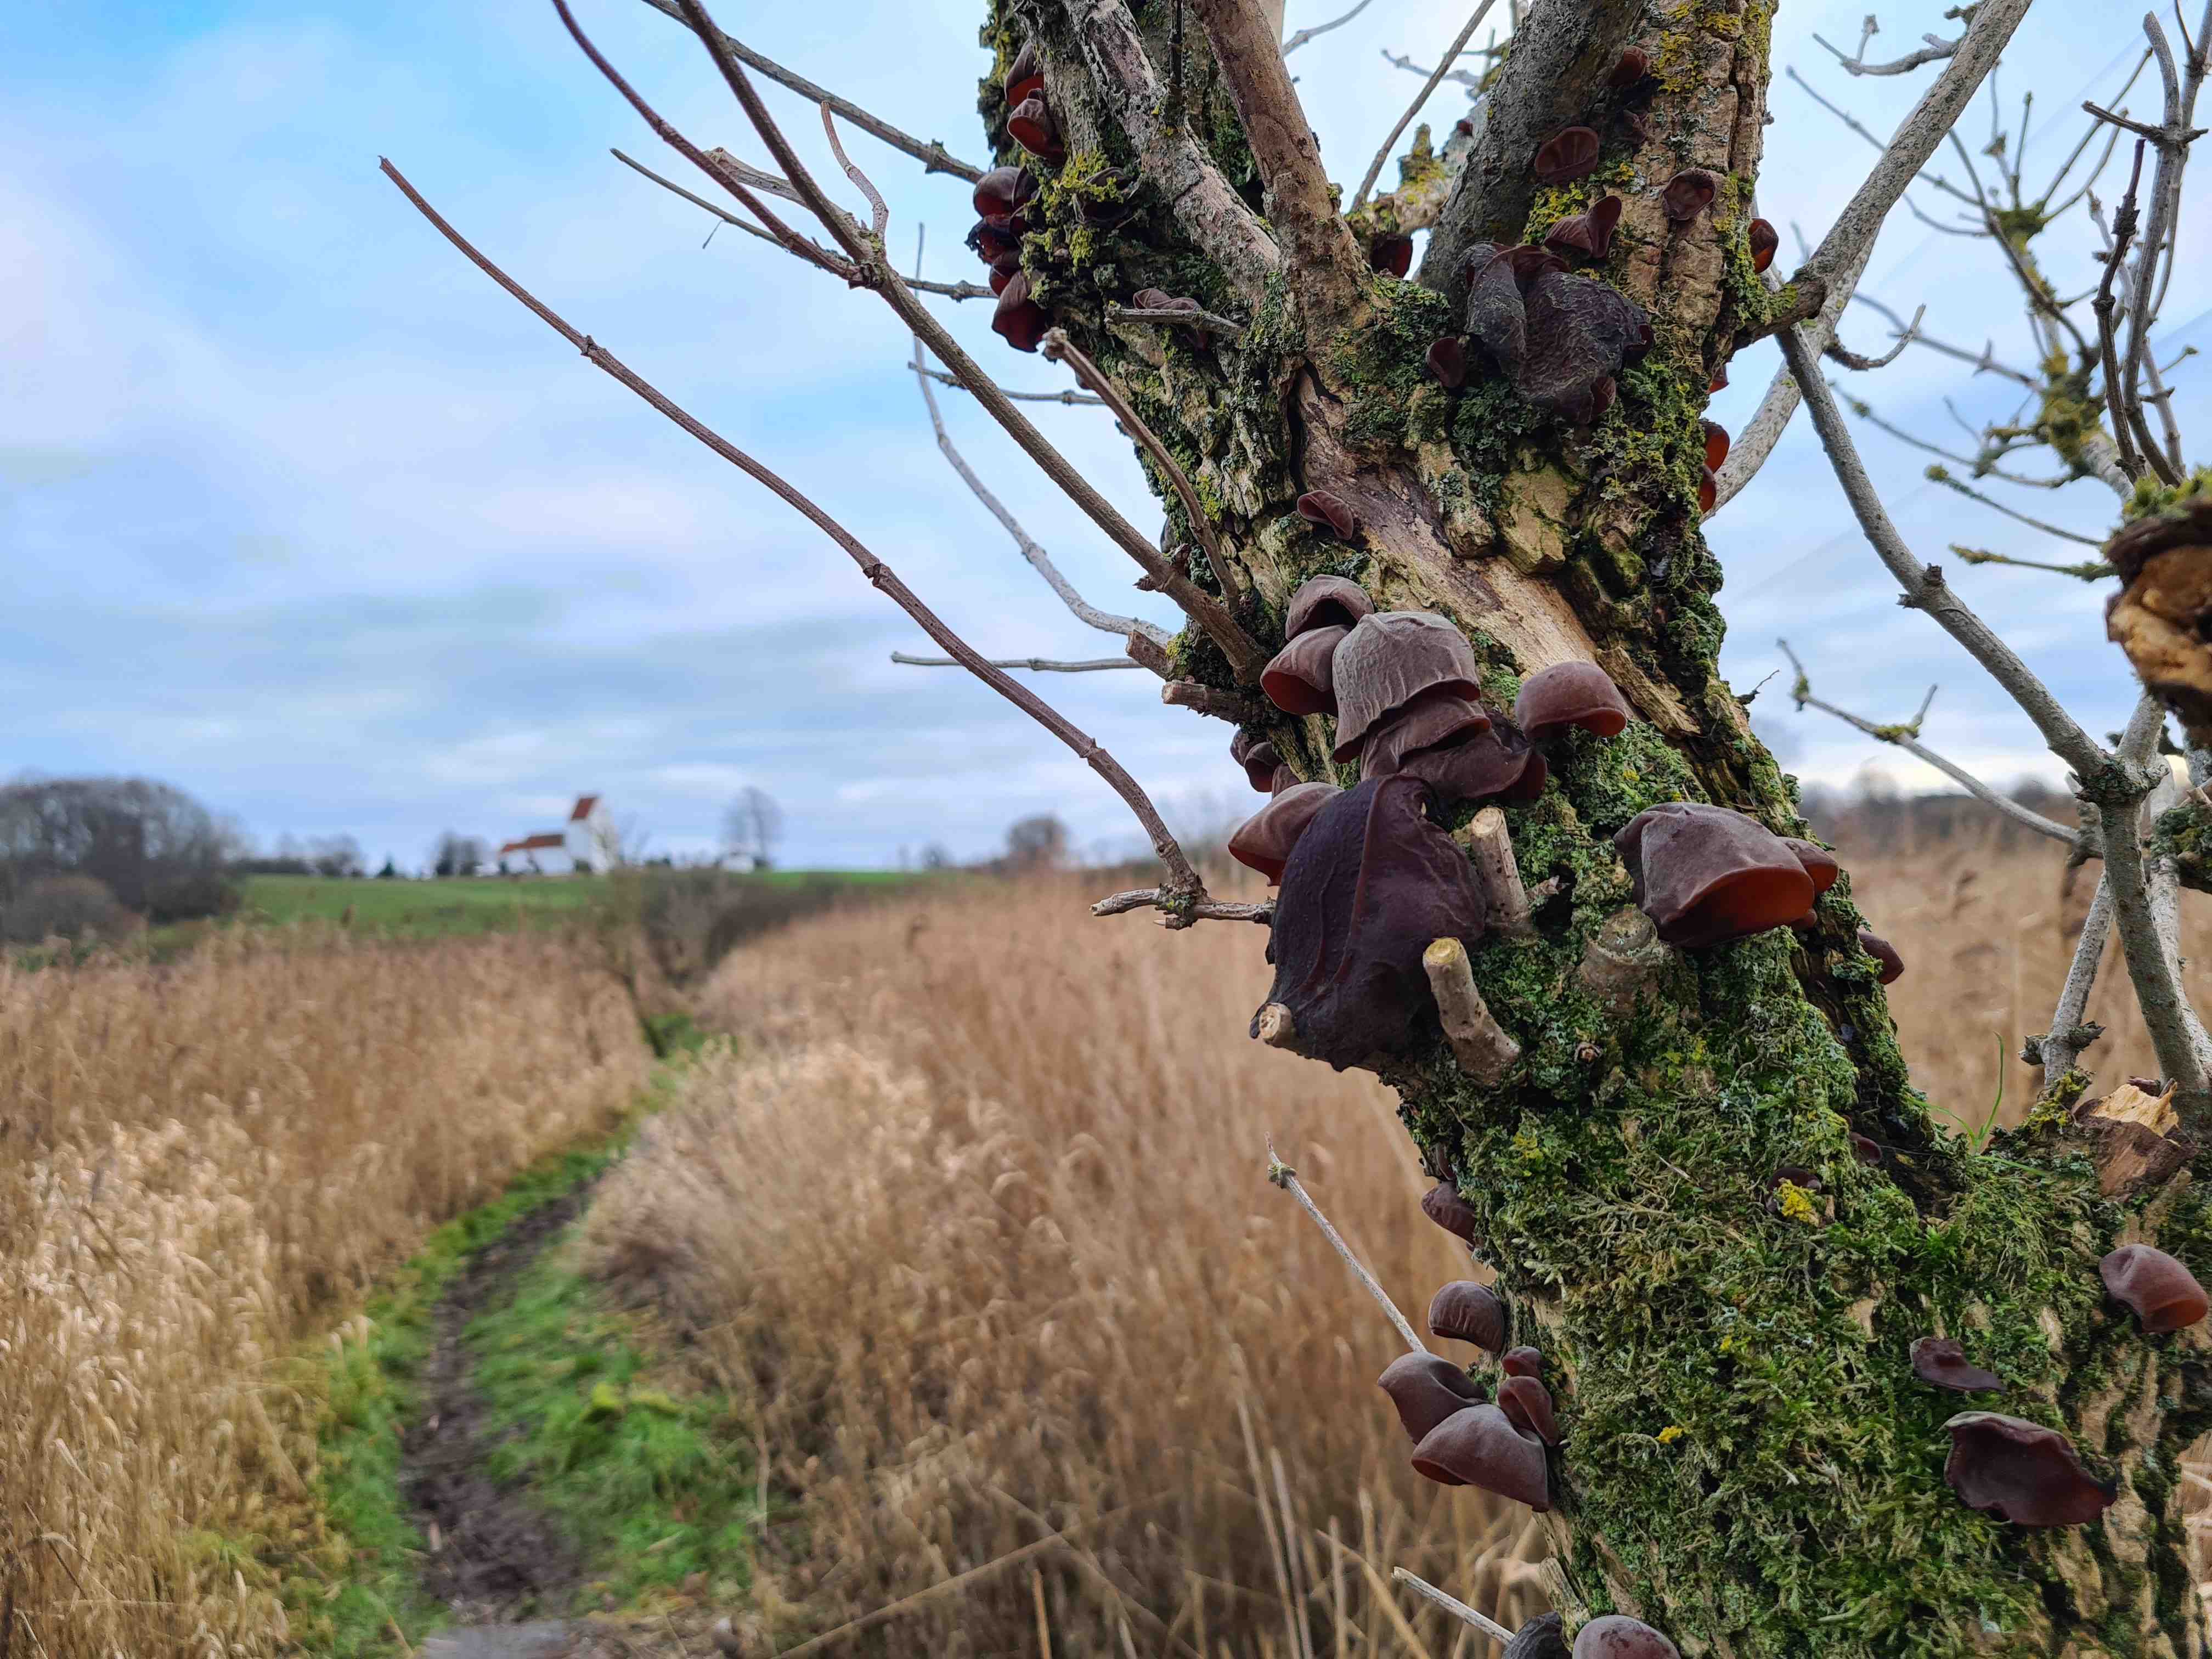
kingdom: Fungi
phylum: Basidiomycota
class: Agaricomycetes
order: Auriculariales
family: Auriculariaceae
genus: Auricularia
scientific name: Auricularia auricula-judae
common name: almindelig judasøre
